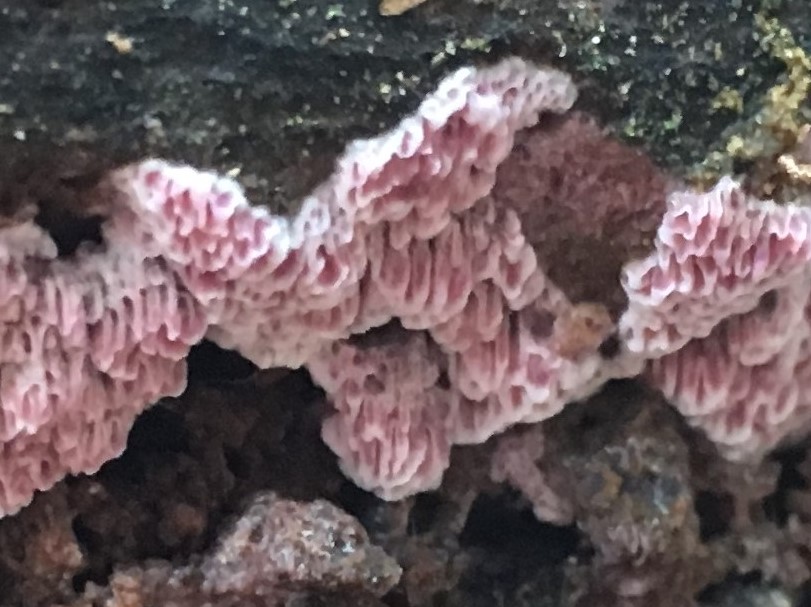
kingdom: Fungi
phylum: Basidiomycota
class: Agaricomycetes
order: Polyporales
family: Irpicaceae
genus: Ceriporia
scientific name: Ceriporia
